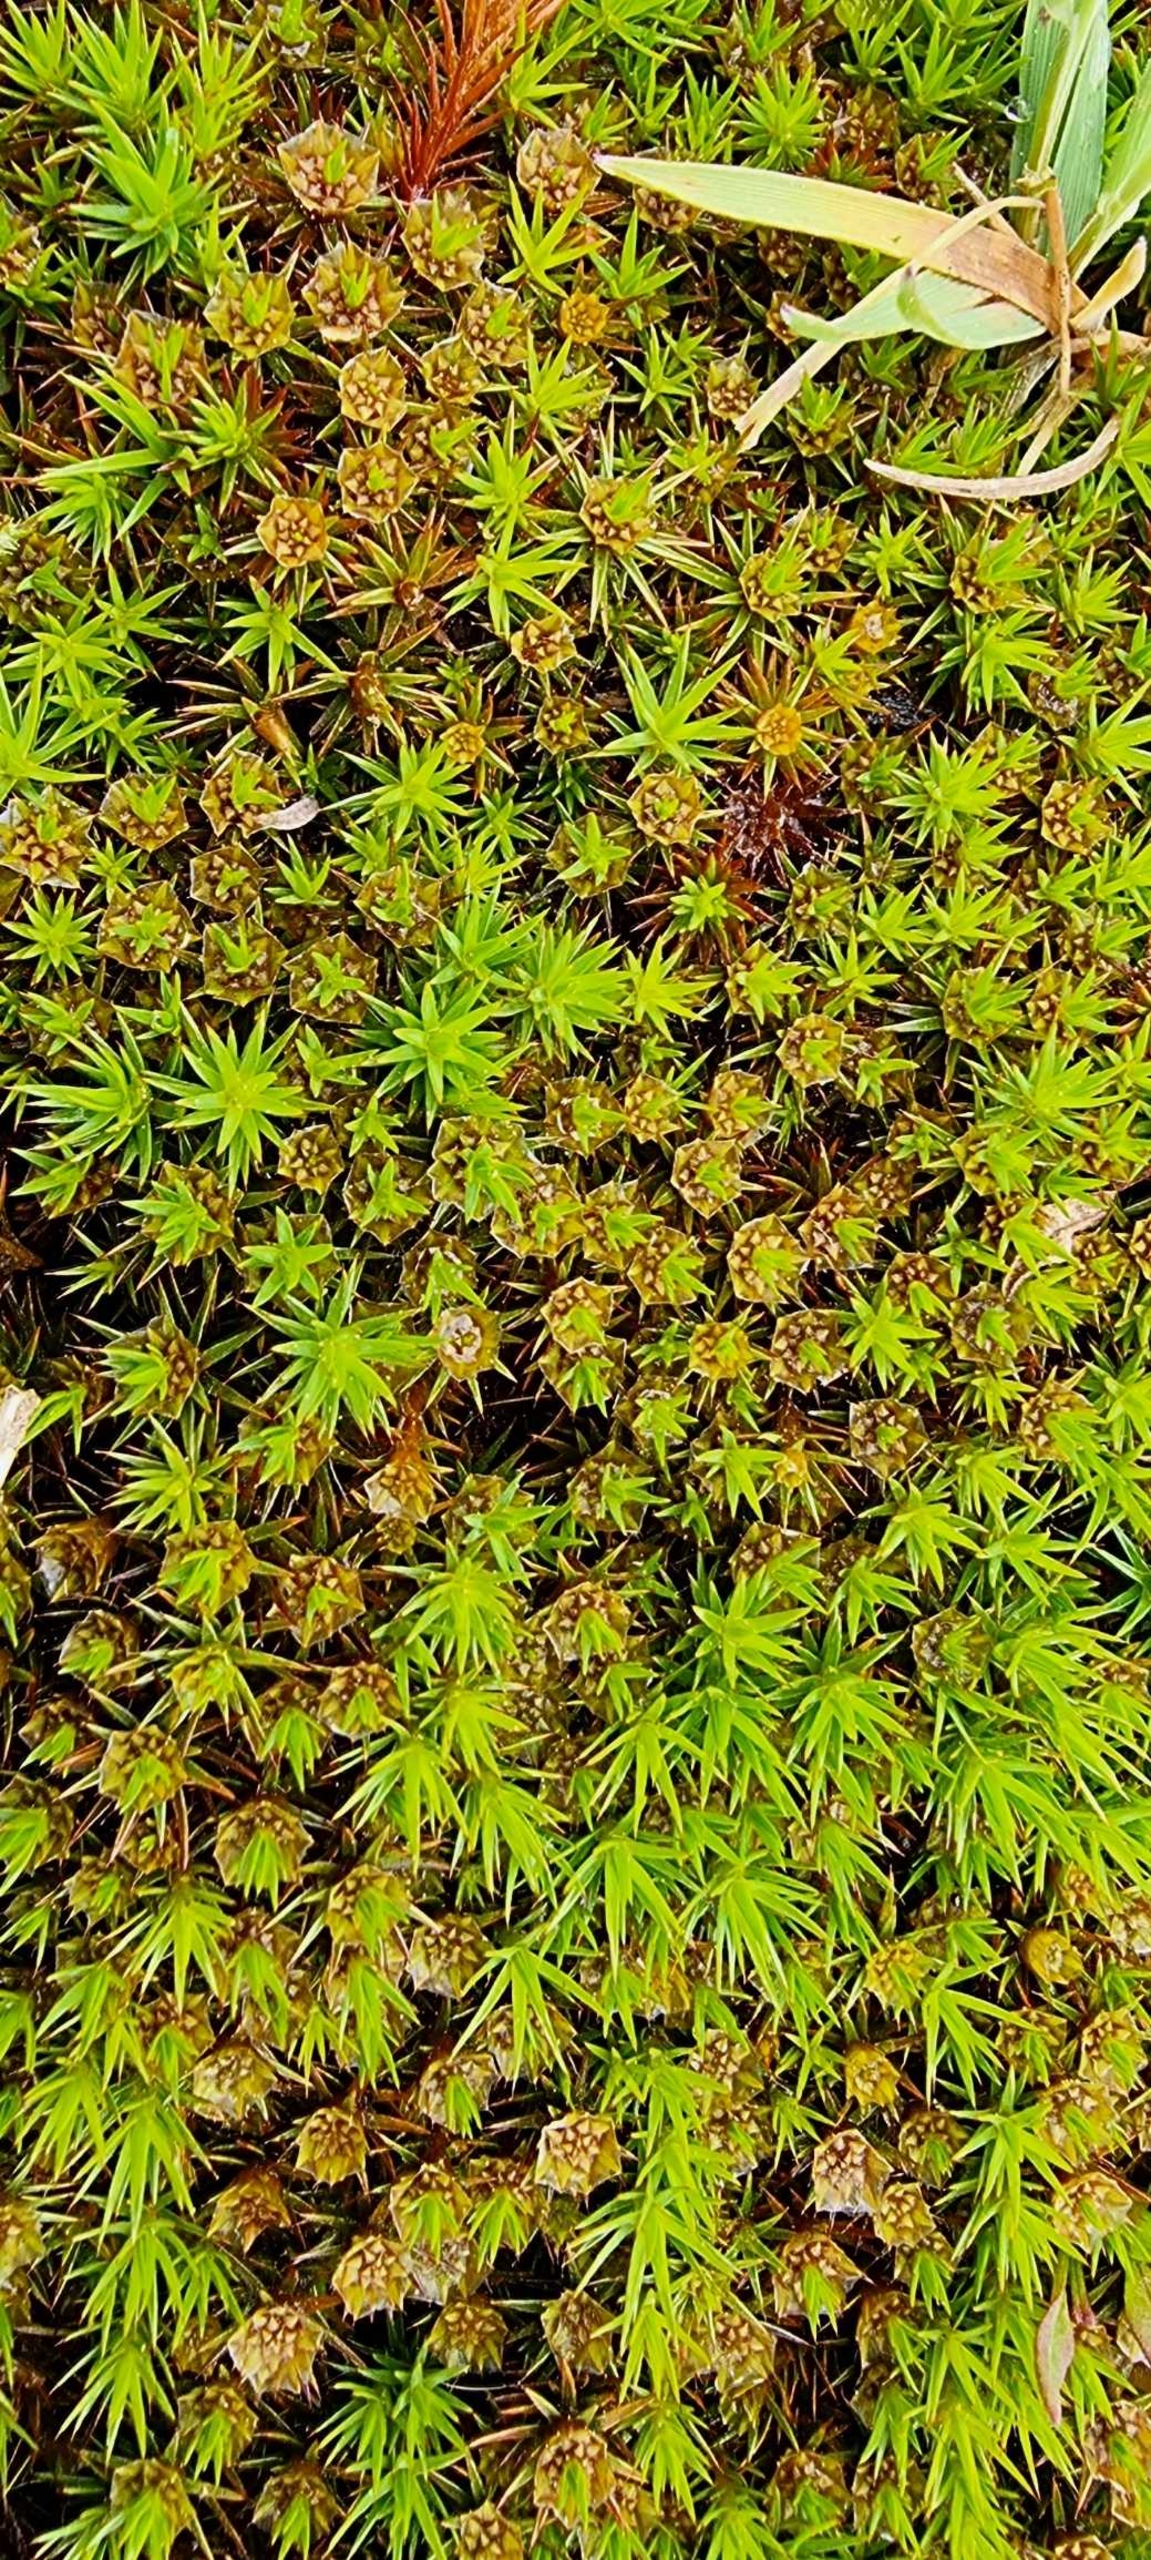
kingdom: Plantae
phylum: Bryophyta
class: Polytrichopsida
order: Polytrichales
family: Polytrichaceae
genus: Polytrichum
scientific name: Polytrichum juniperinum
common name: Ene-jomfruhår
